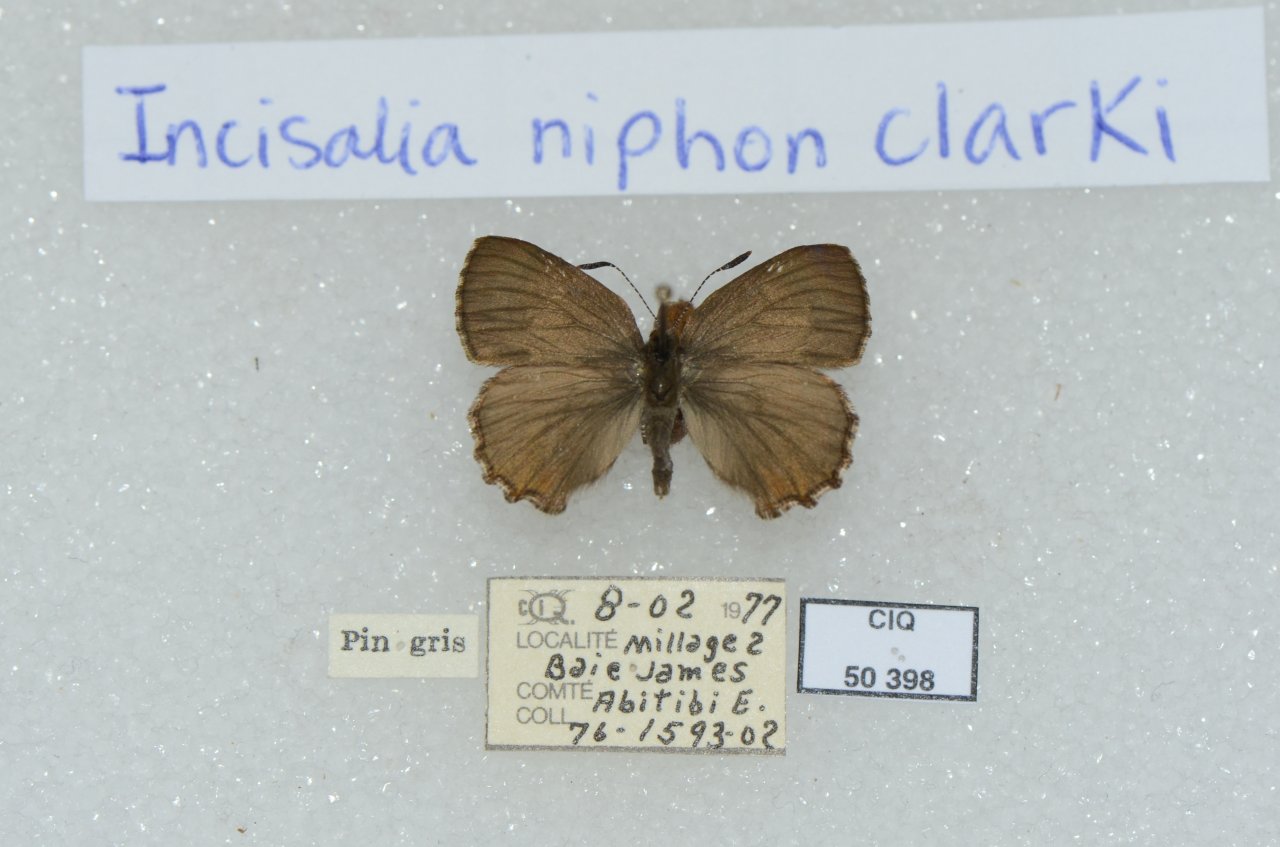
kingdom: Animalia
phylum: Arthropoda
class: Insecta
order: Lepidoptera
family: Lycaenidae
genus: Incisalia
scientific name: Incisalia niphon
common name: Eastern Pine Elfin
